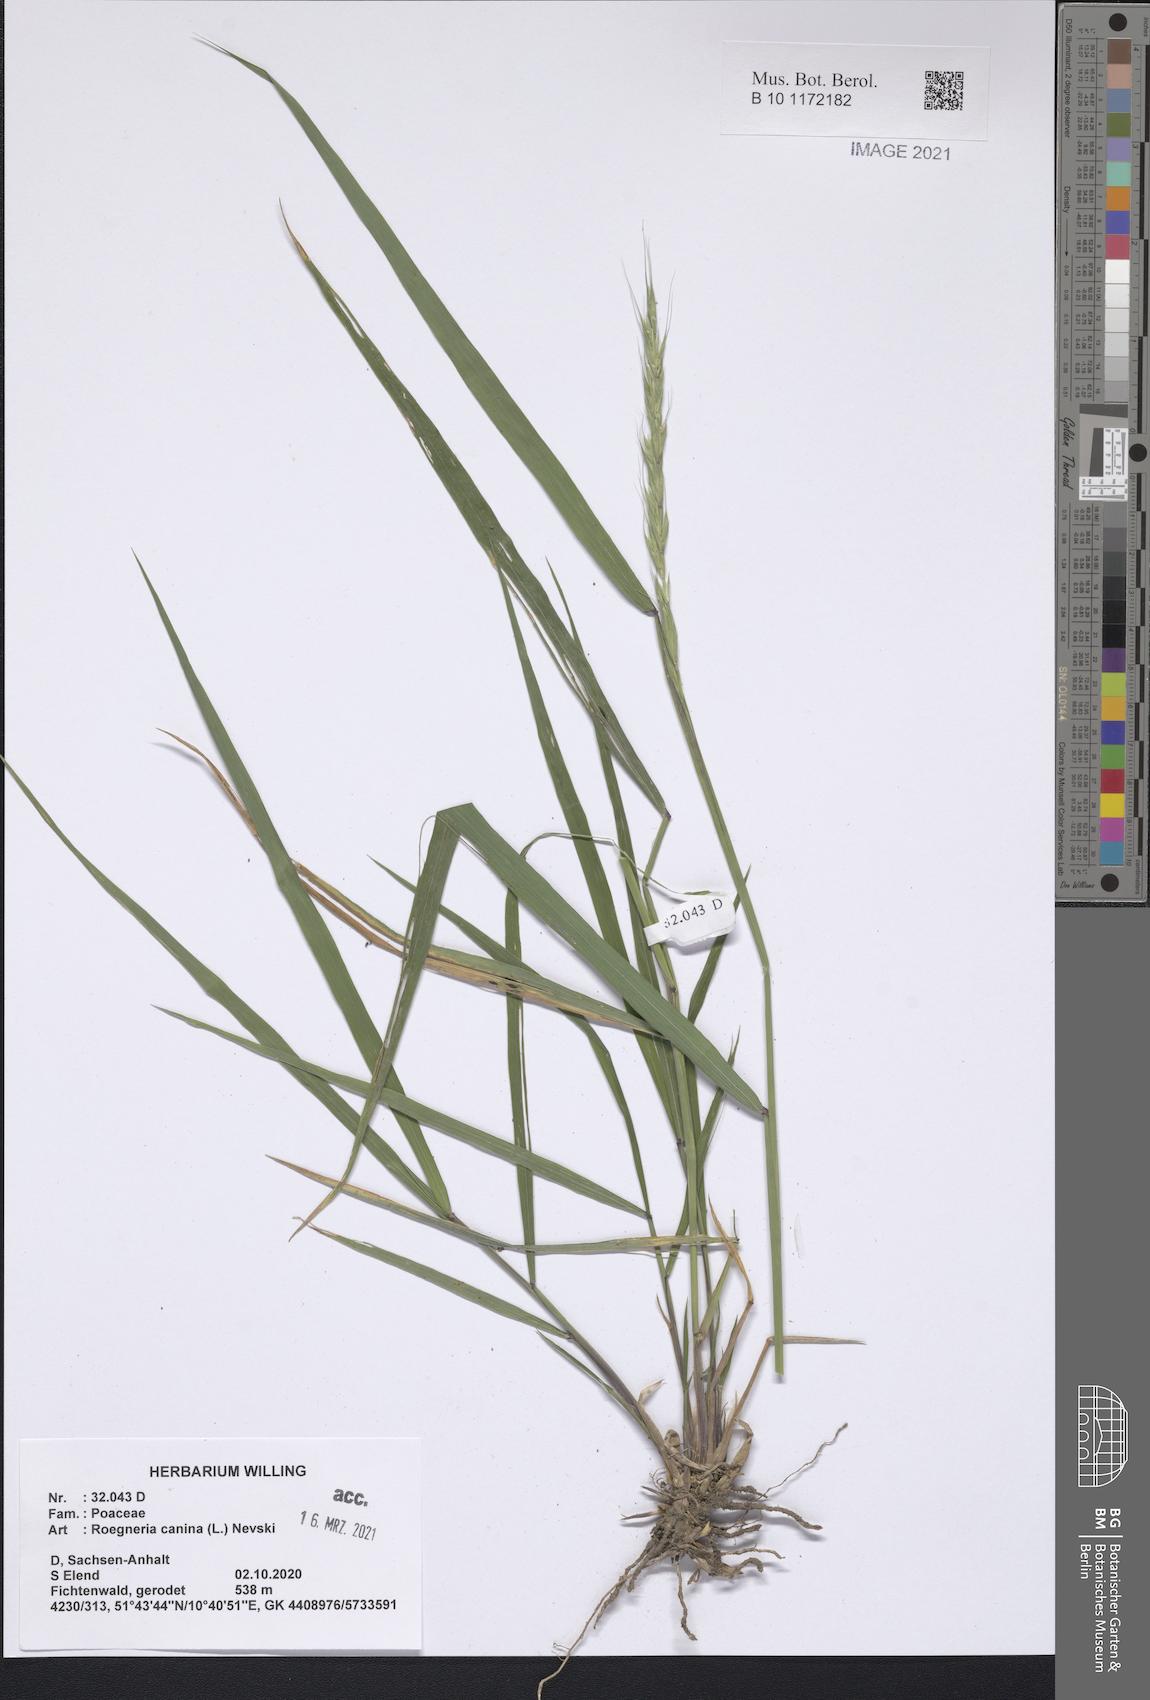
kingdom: Plantae
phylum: Tracheophyta
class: Liliopsida
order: Poales
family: Poaceae
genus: Elymus
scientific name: Elymus caninus
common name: Bearded couch
